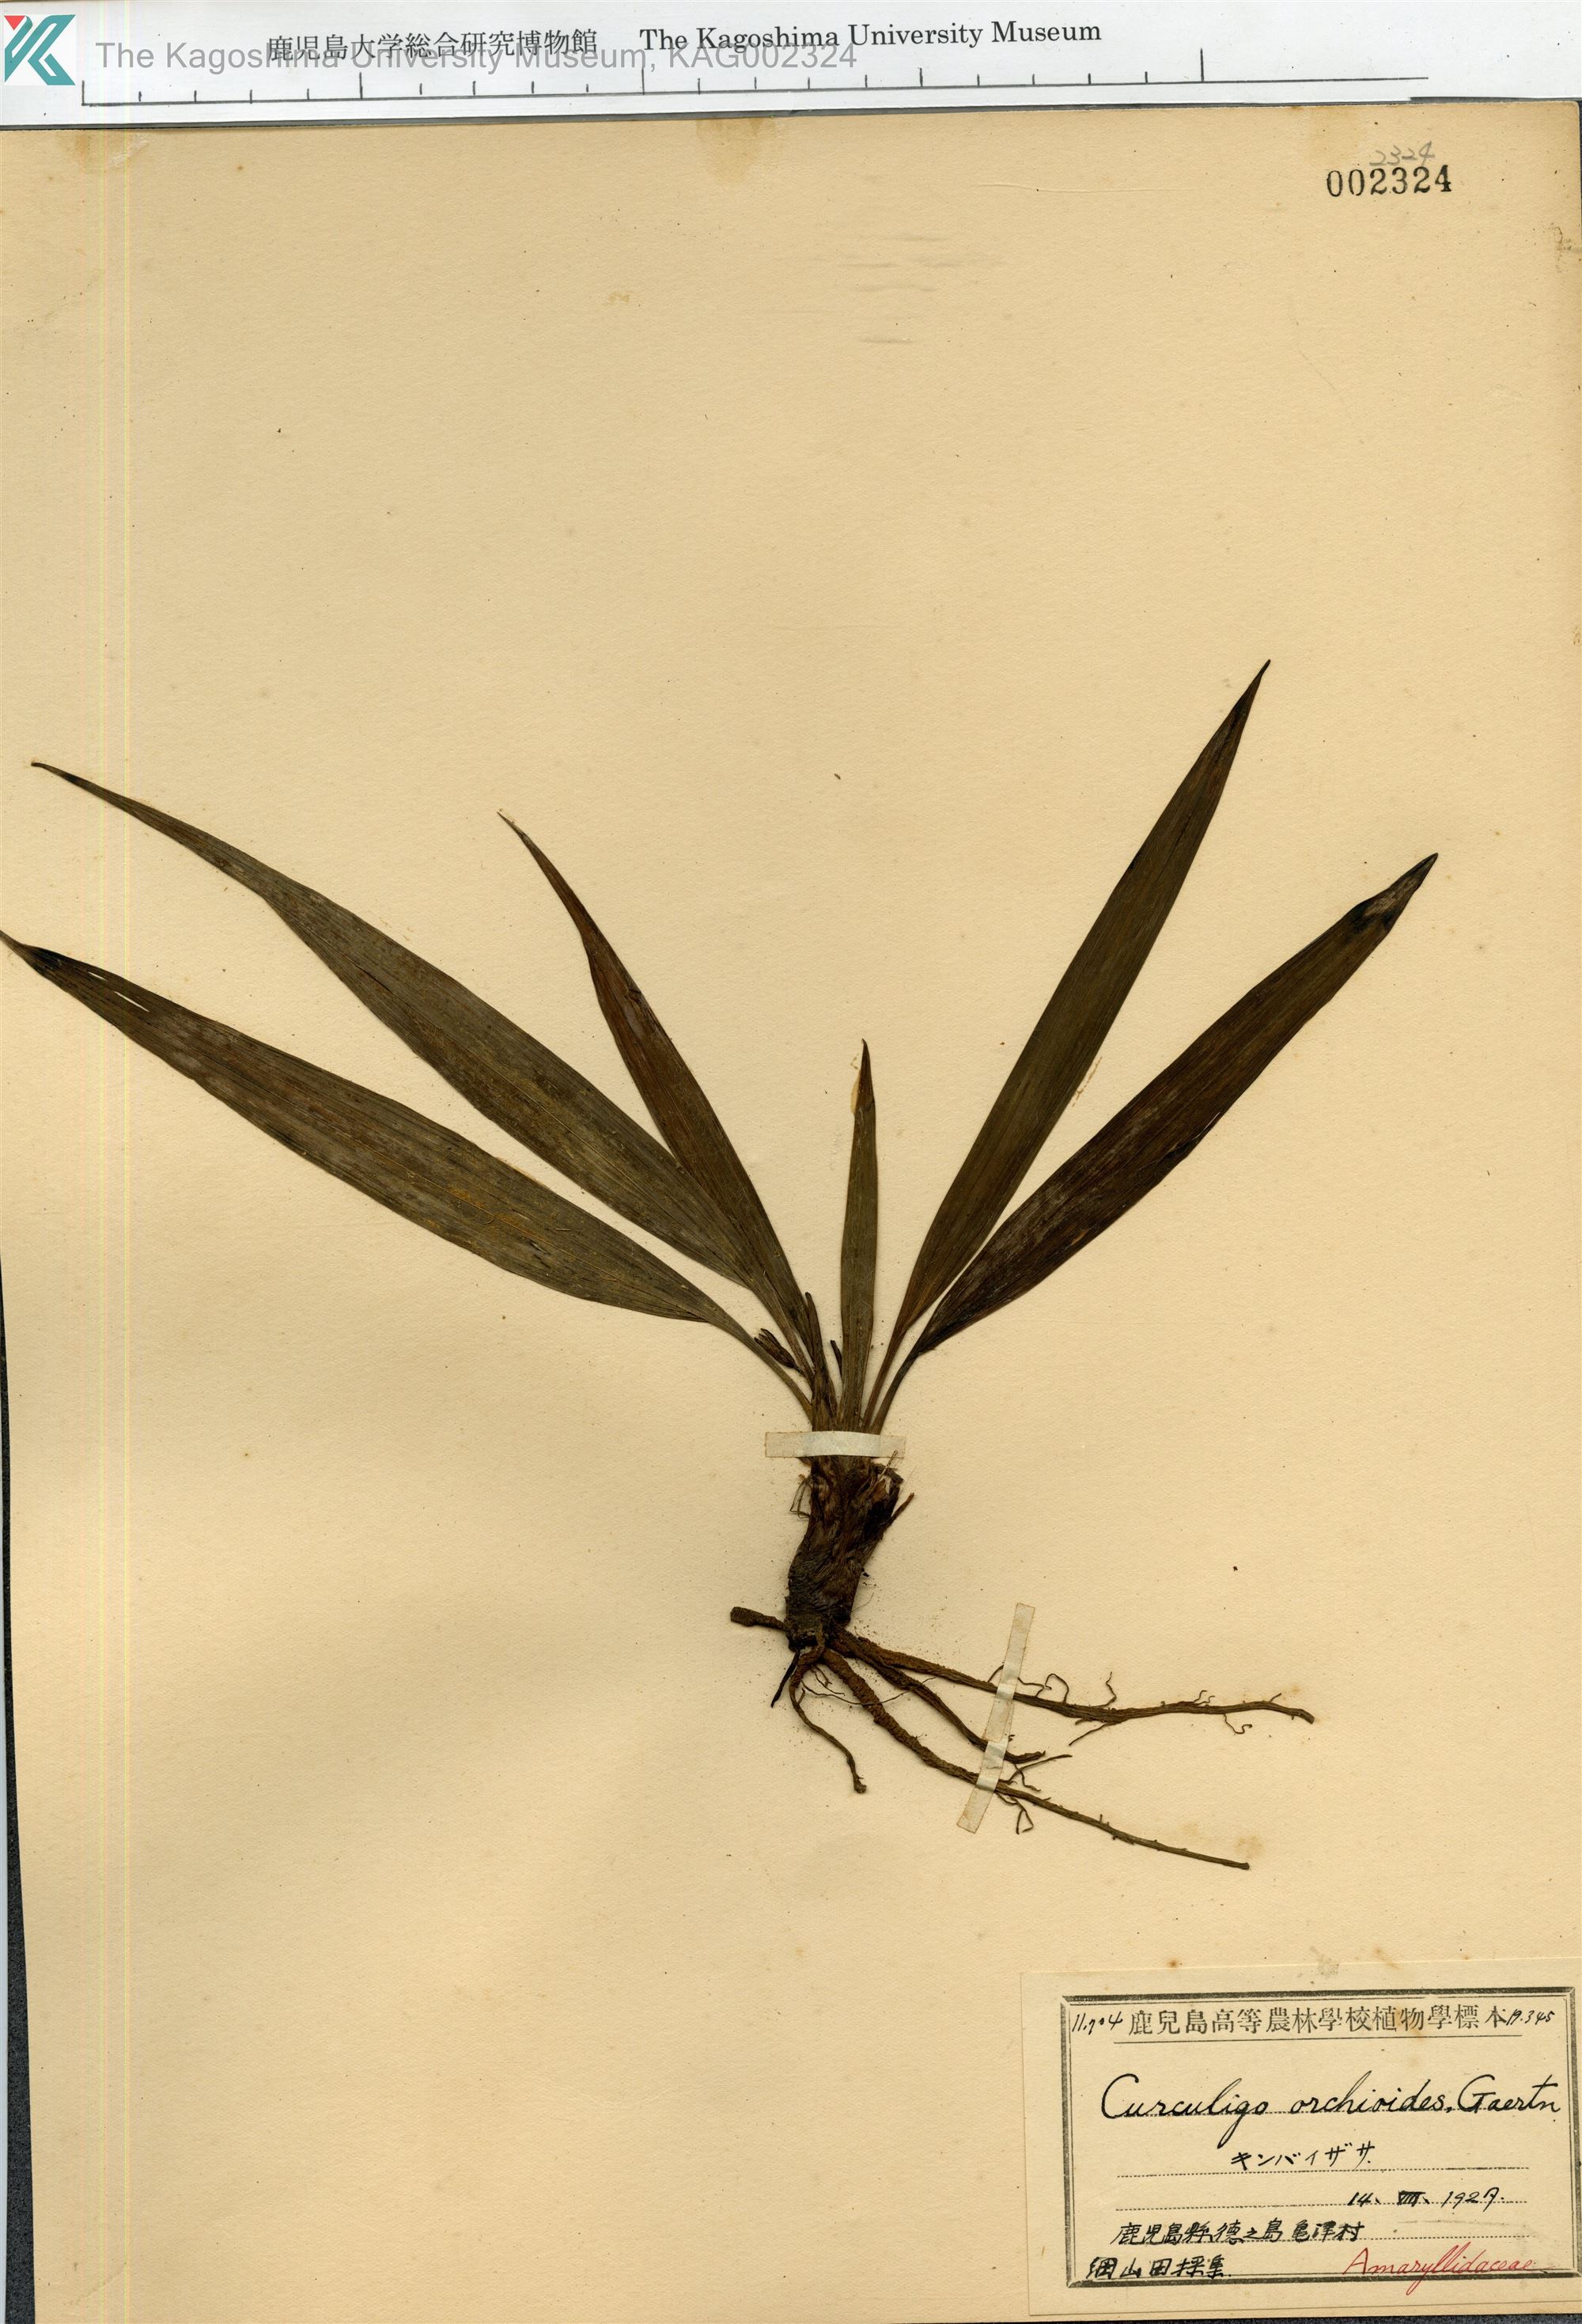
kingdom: Plantae
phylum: Tracheophyta
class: Liliopsida
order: Asparagales
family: Hypoxidaceae
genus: Curculigo
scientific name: Curculigo orchioides
